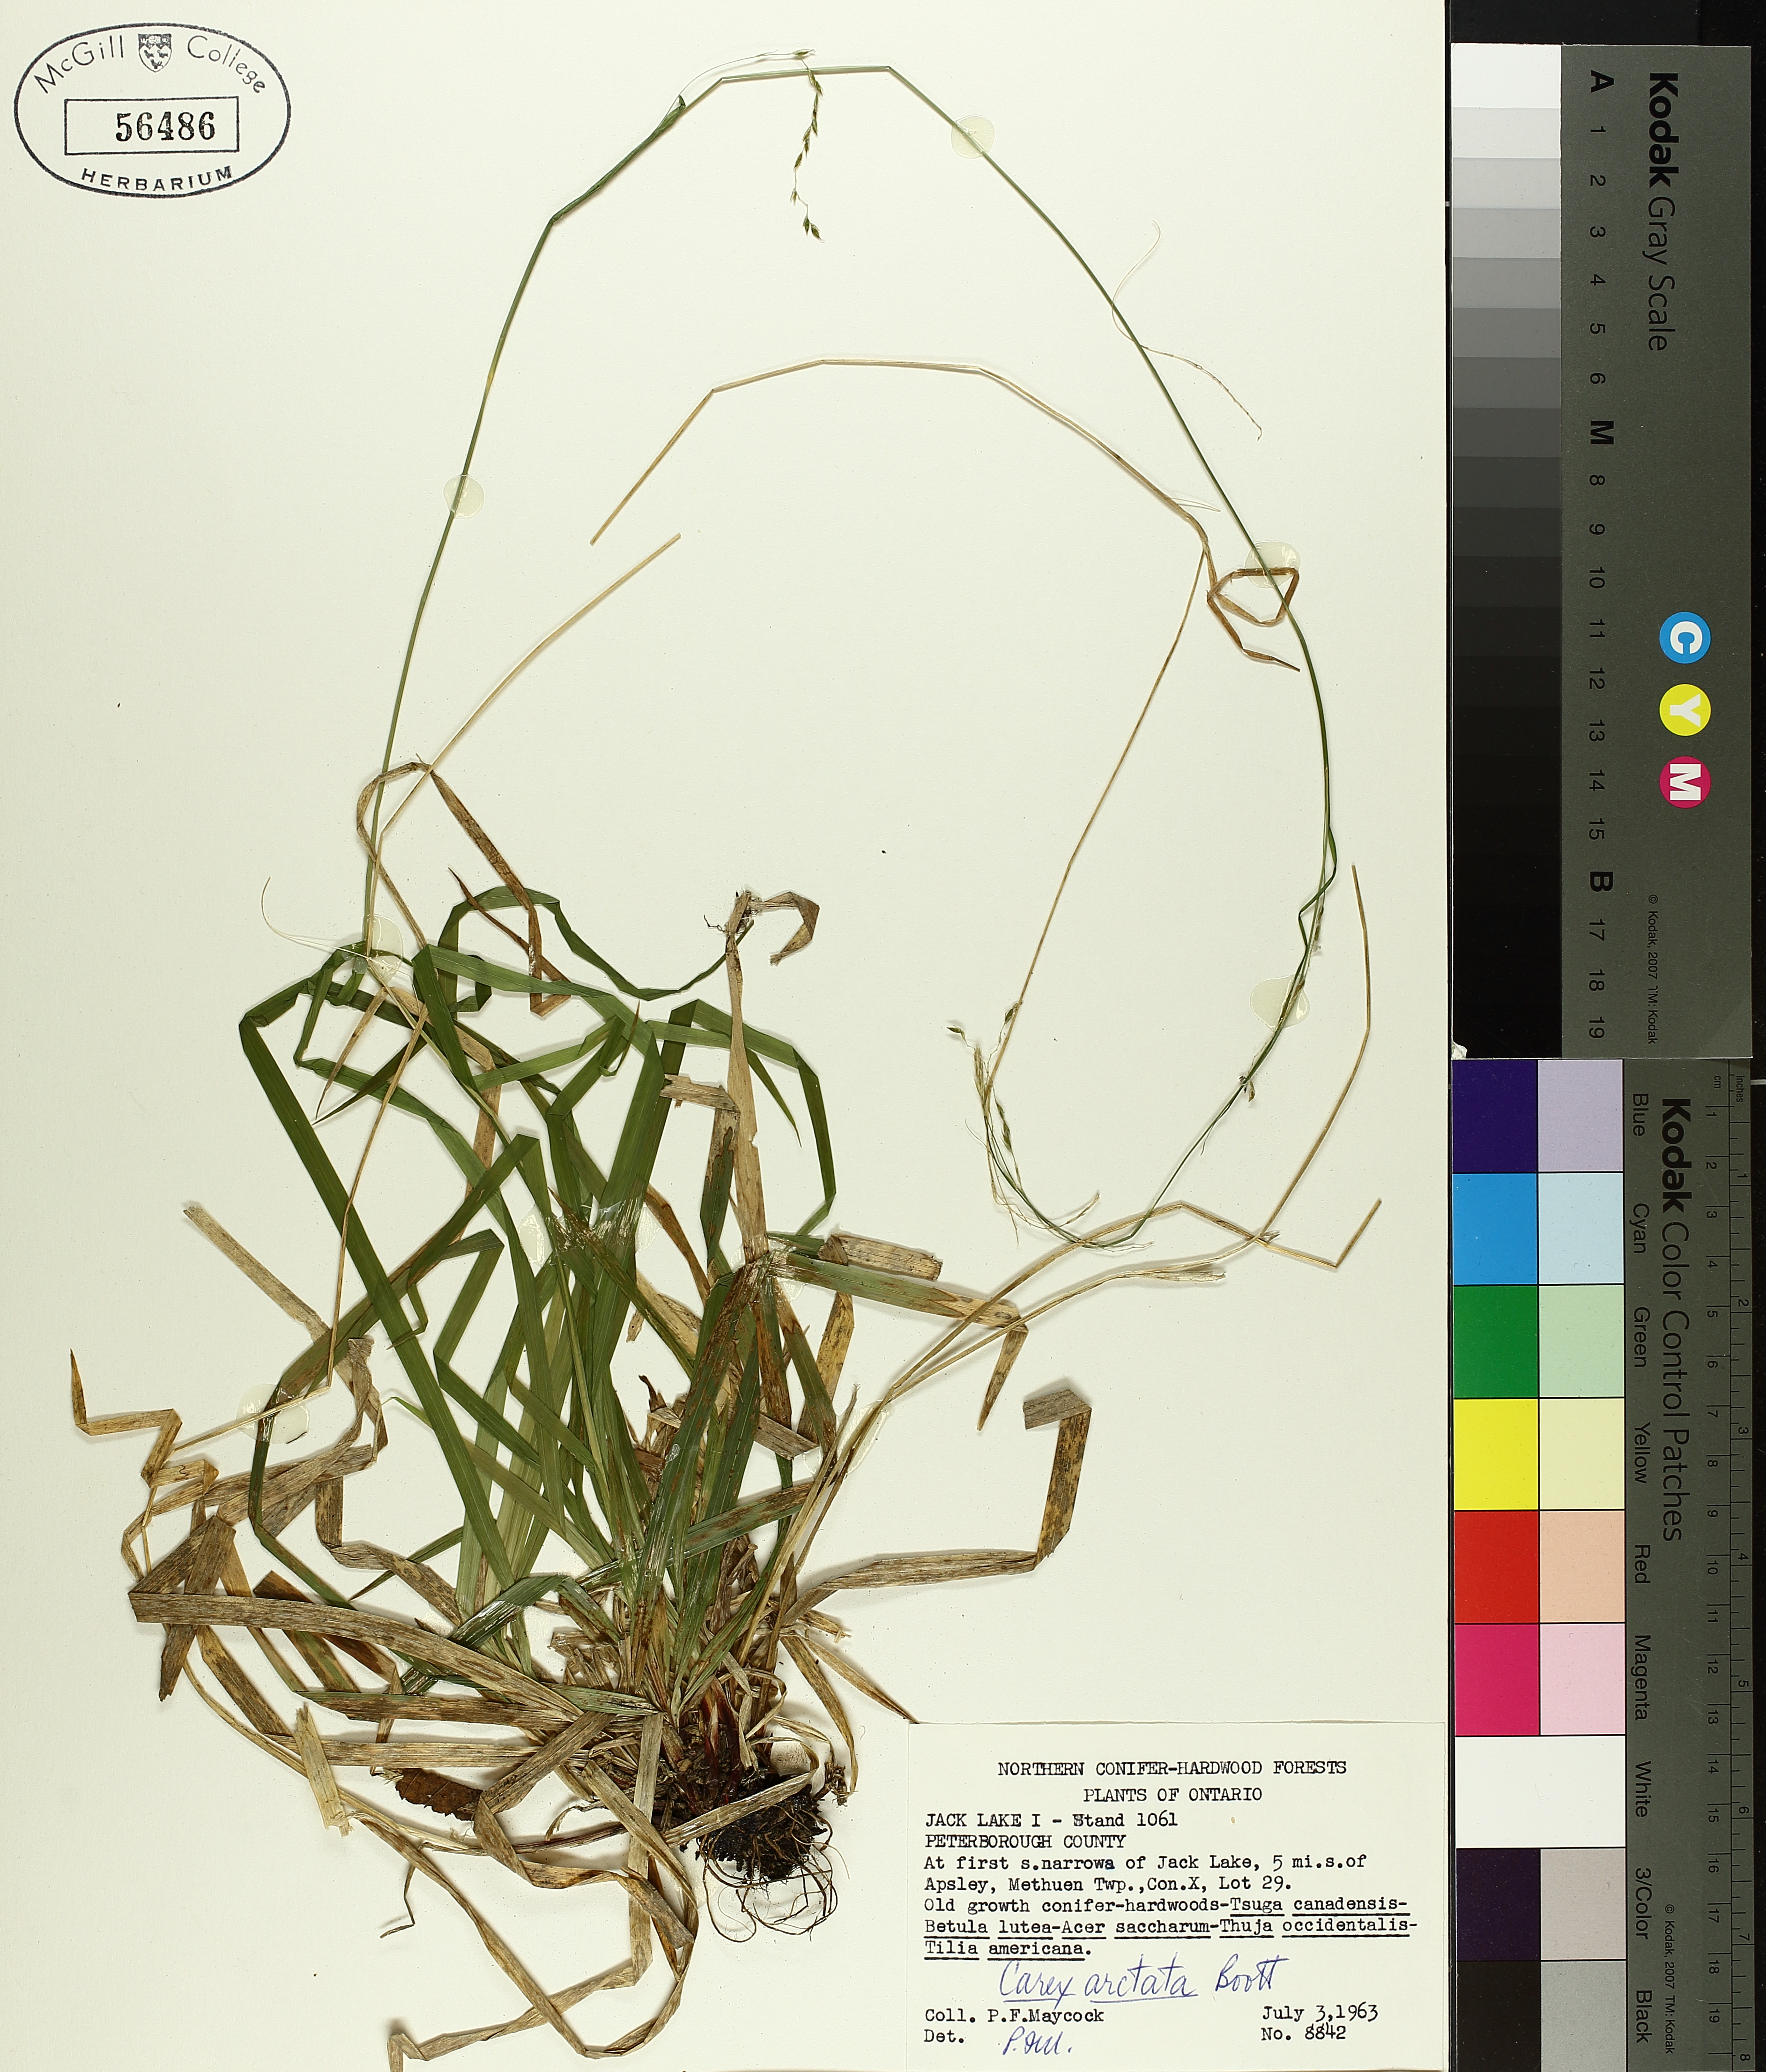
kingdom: Plantae
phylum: Tracheophyta
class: Liliopsida
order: Poales
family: Cyperaceae
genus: Carex
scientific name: Carex arctata
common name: Black sedge
